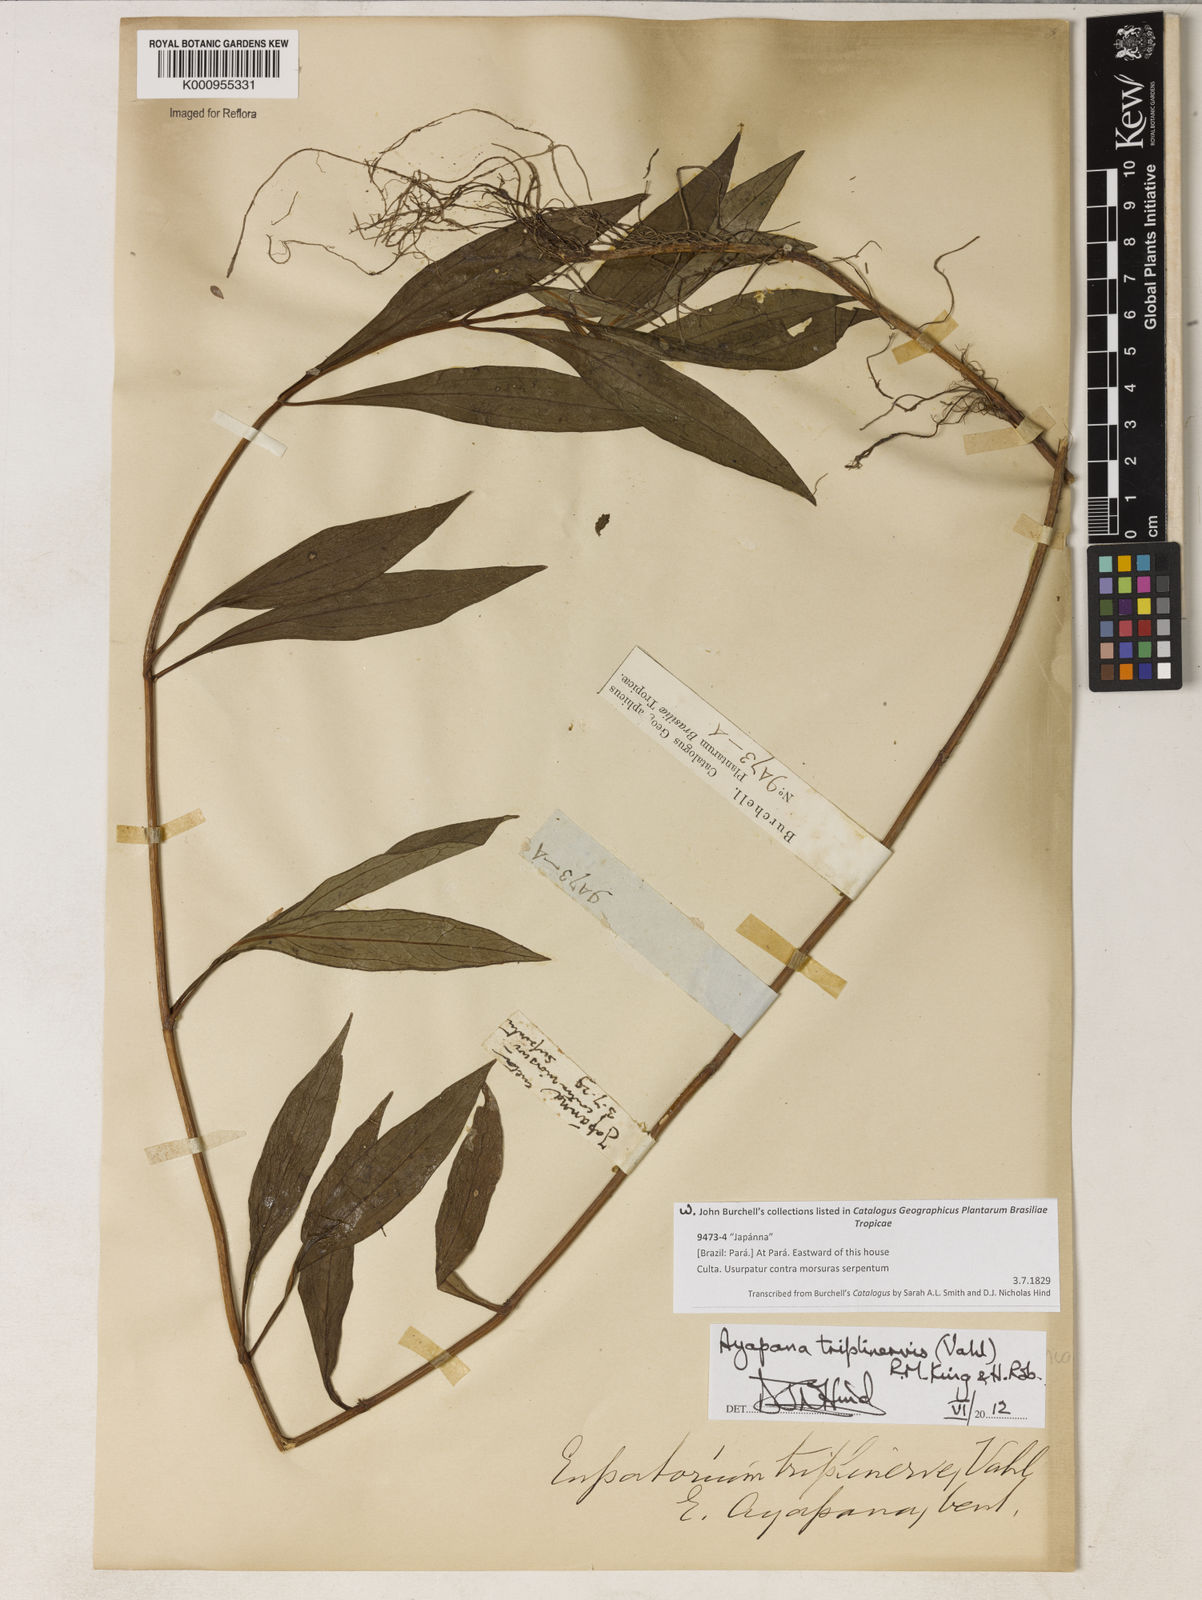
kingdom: Plantae
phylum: Tracheophyta
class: Magnoliopsida
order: Asterales
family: Asteraceae
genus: Ayapana
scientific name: Ayapana triplinervis
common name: Triplinerved eupatorium
